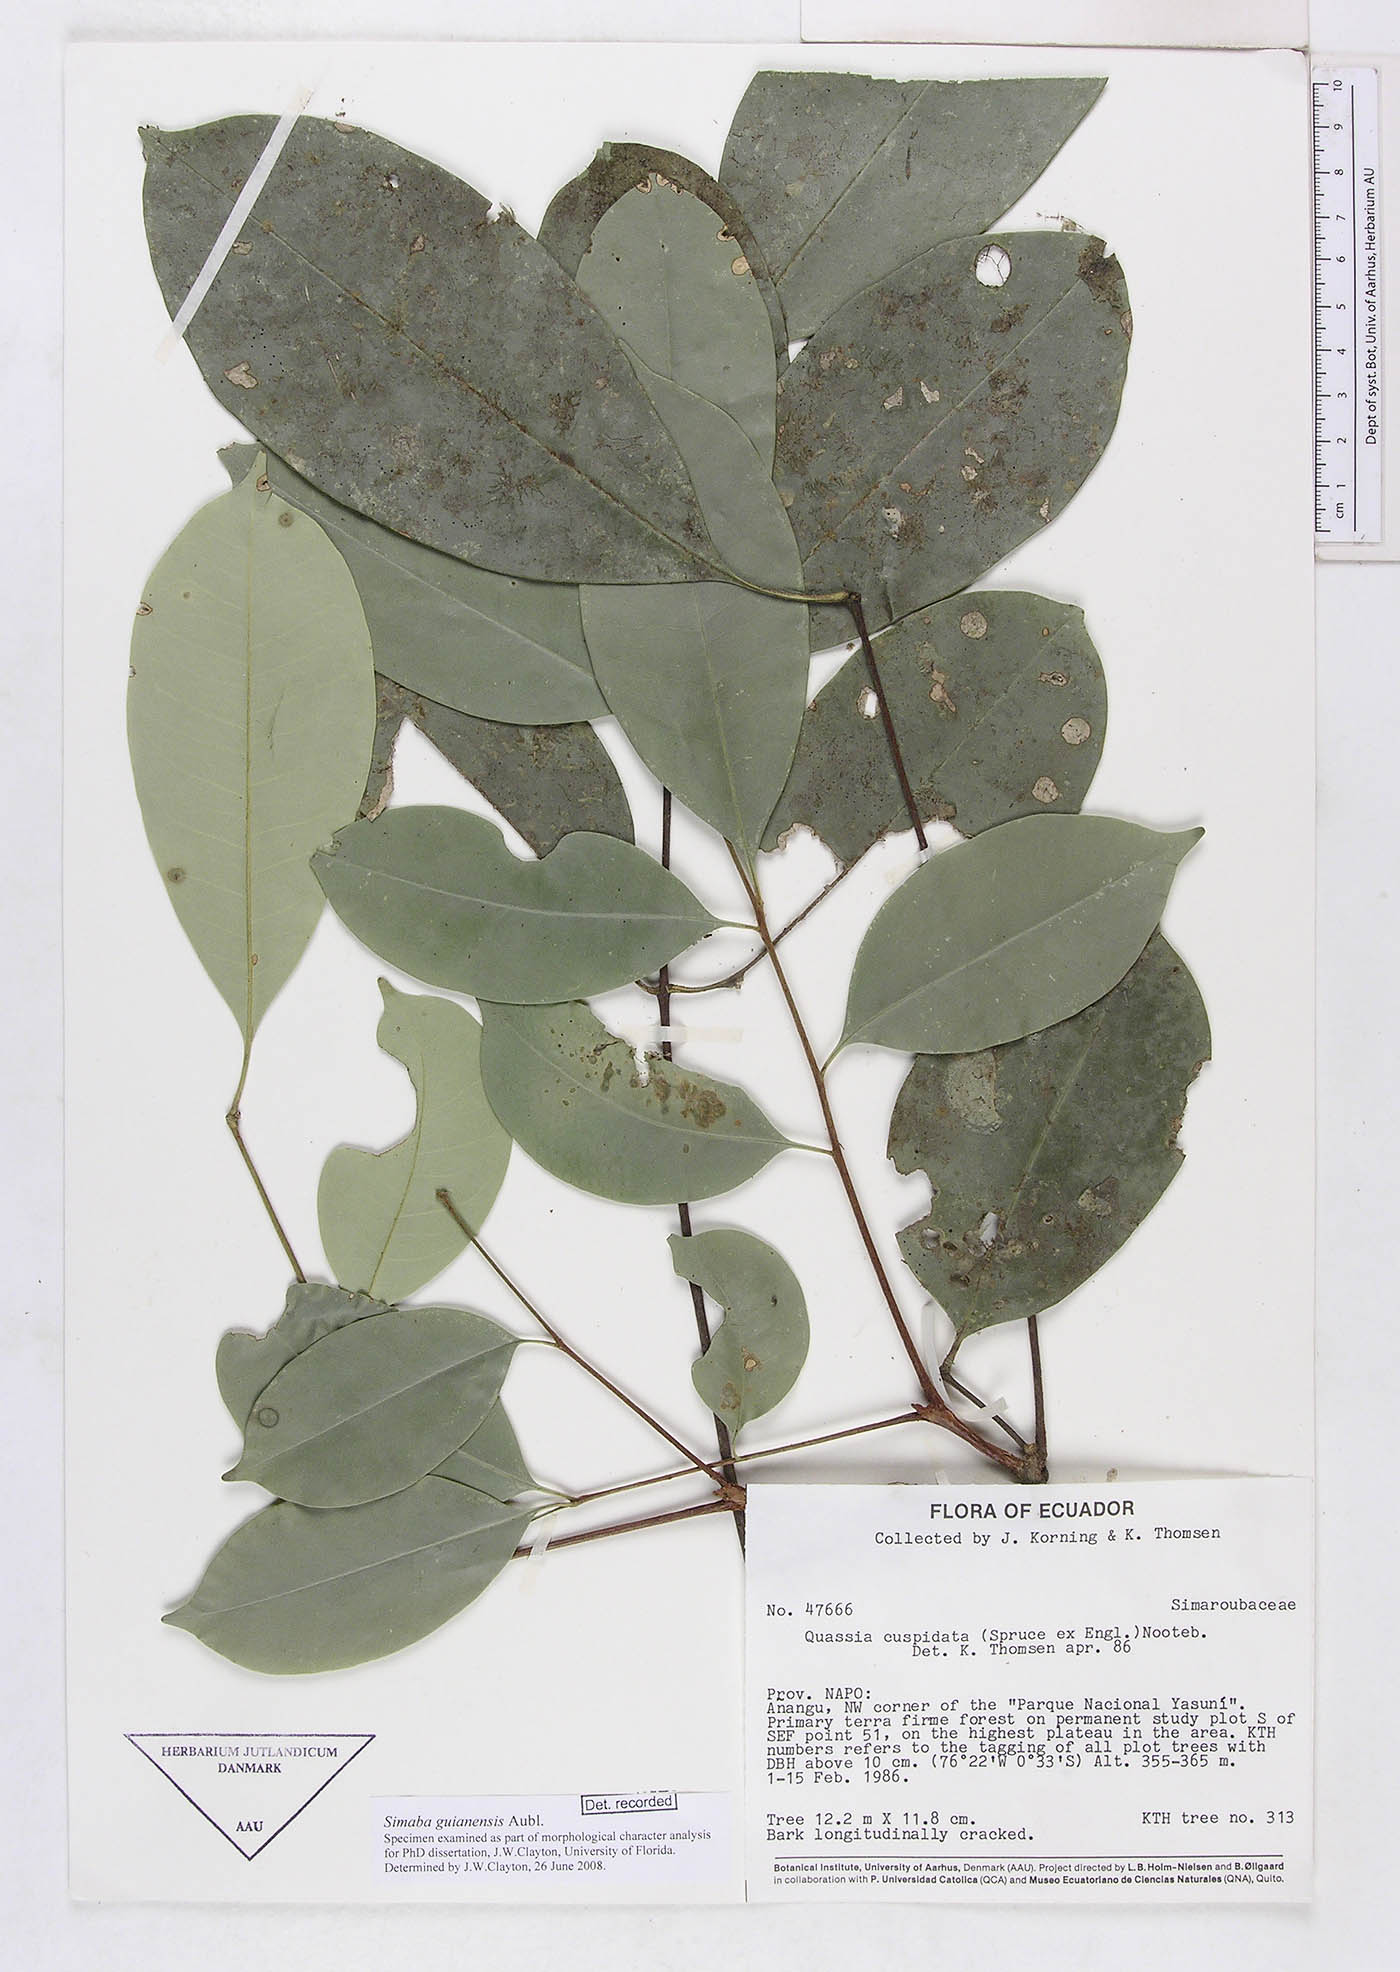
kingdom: Plantae
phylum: Tracheophyta
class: Magnoliopsida
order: Sapindales
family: Simaroubaceae
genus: Simaba
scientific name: Simaba guianensis
